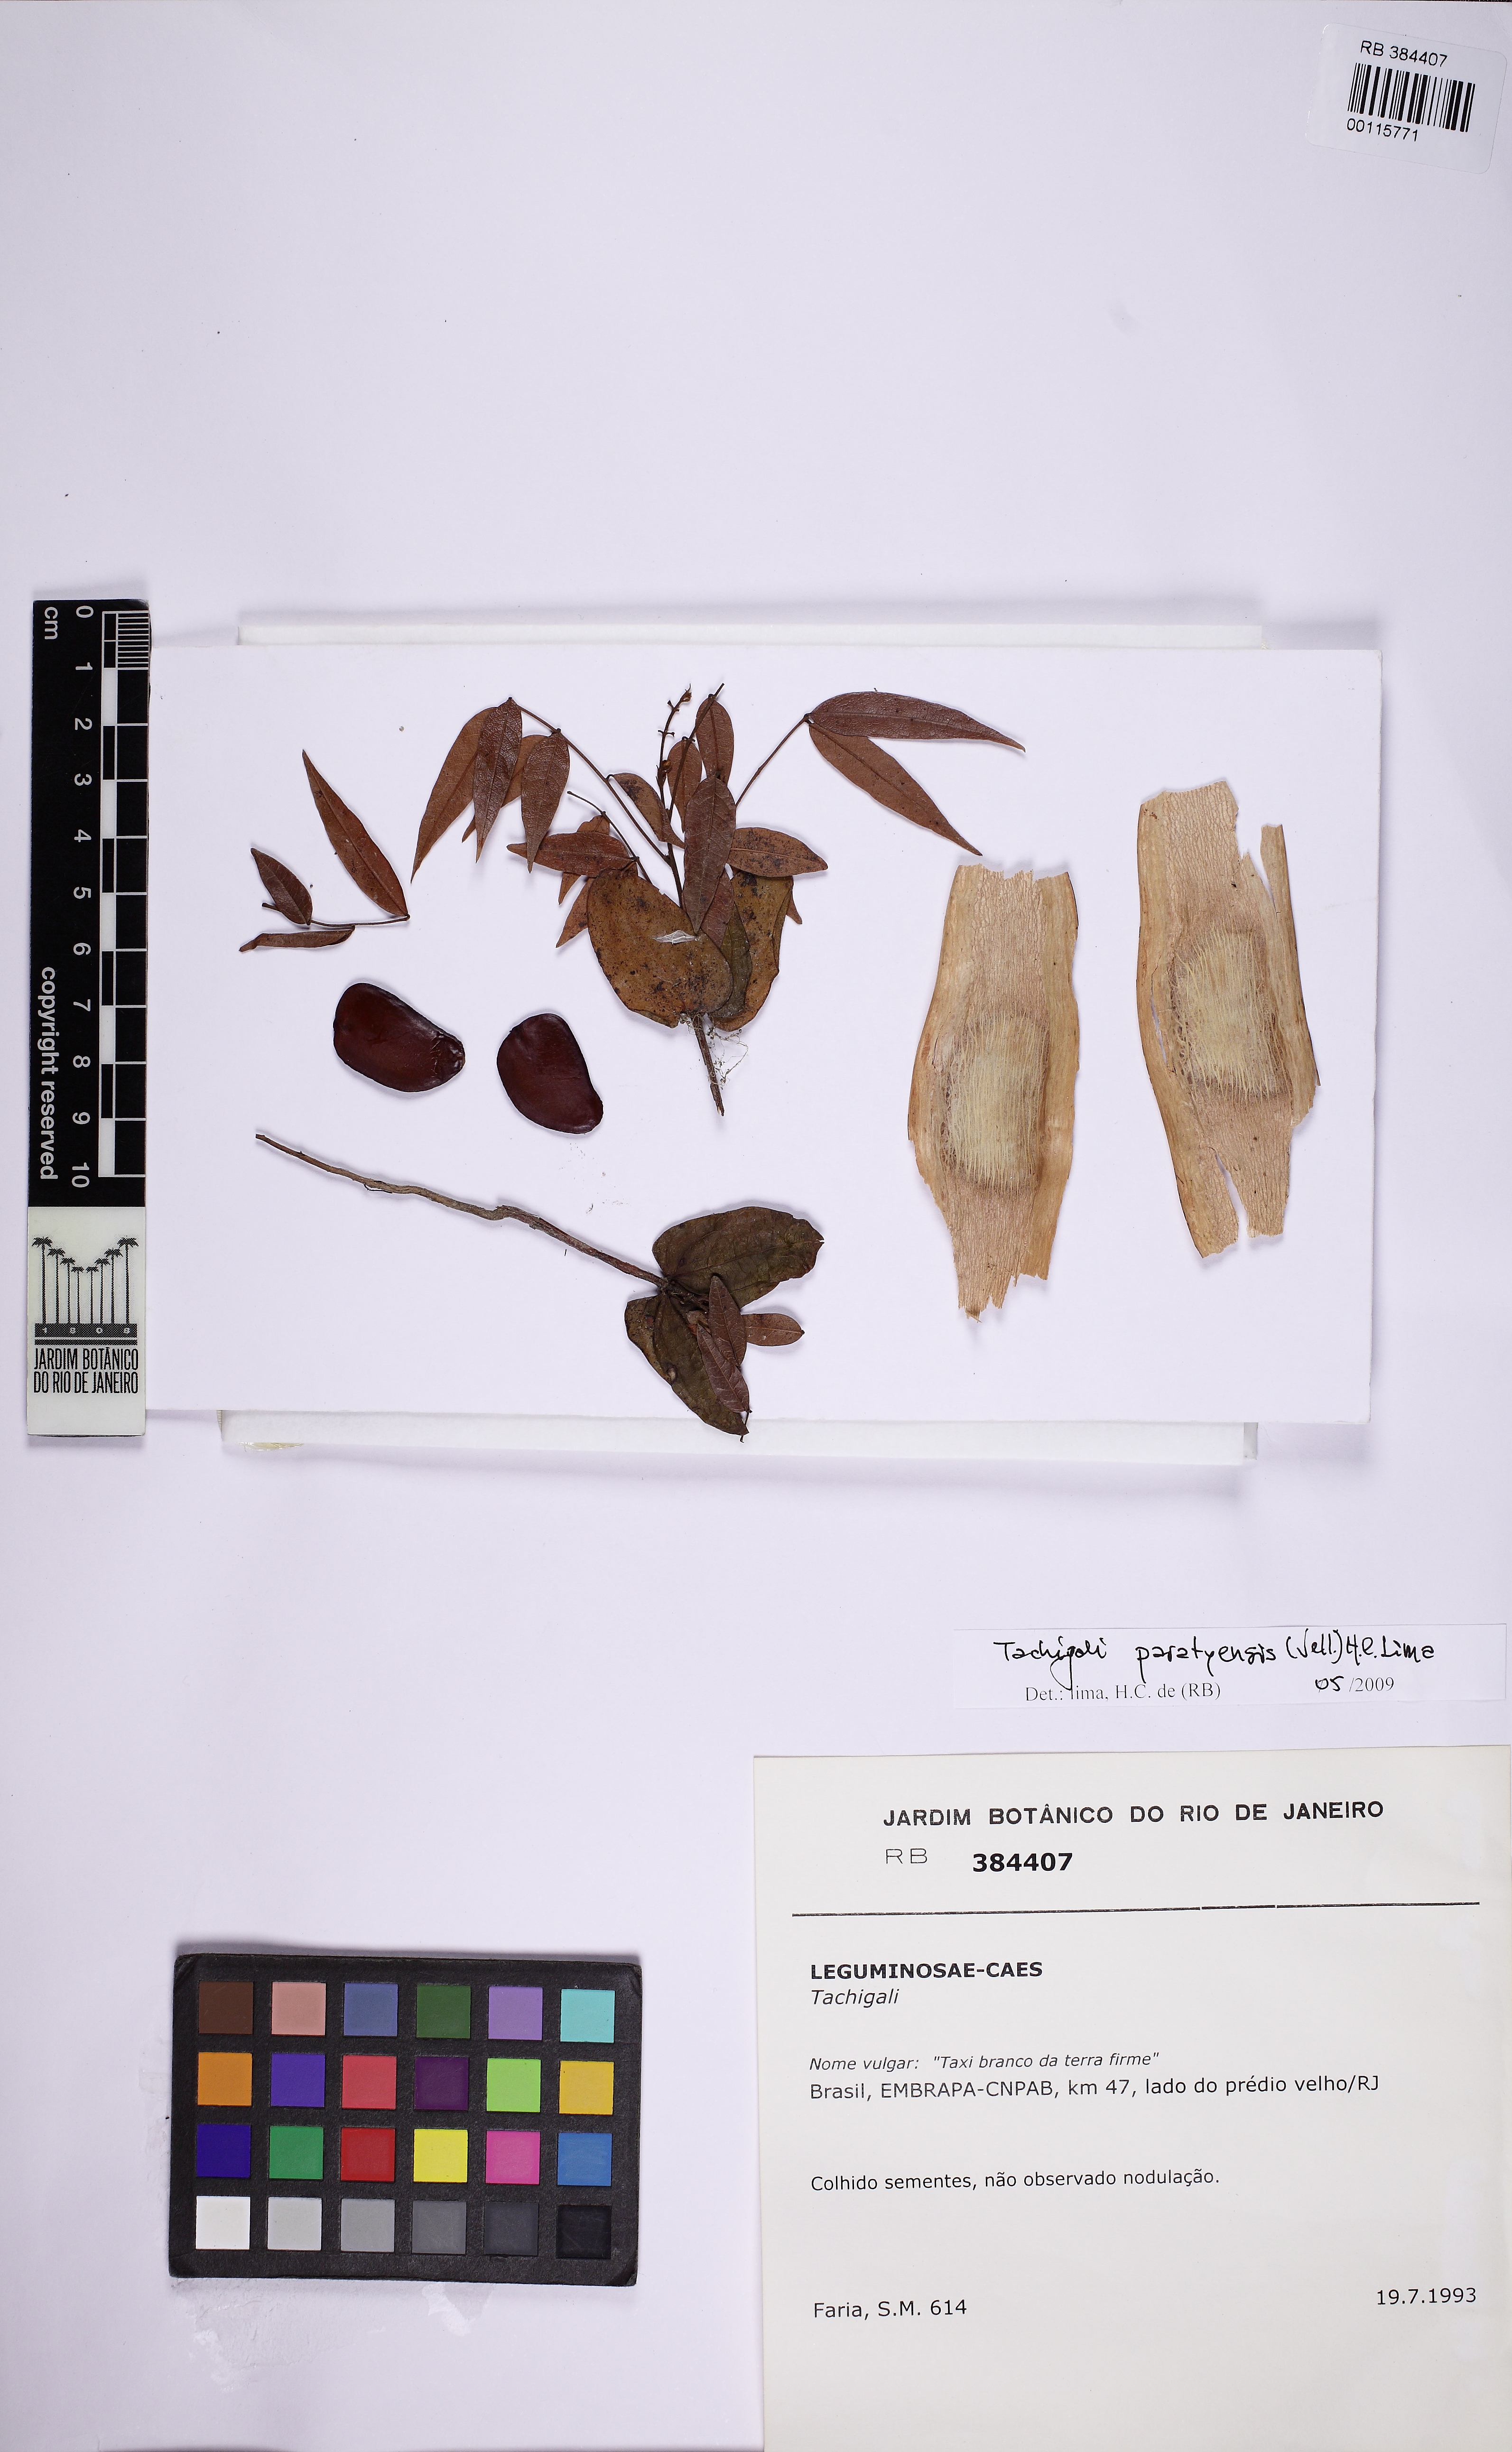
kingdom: Plantae
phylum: Tracheophyta
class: Magnoliopsida
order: Fabales
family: Fabaceae
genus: Tachigali
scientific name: Tachigali paratyensis
